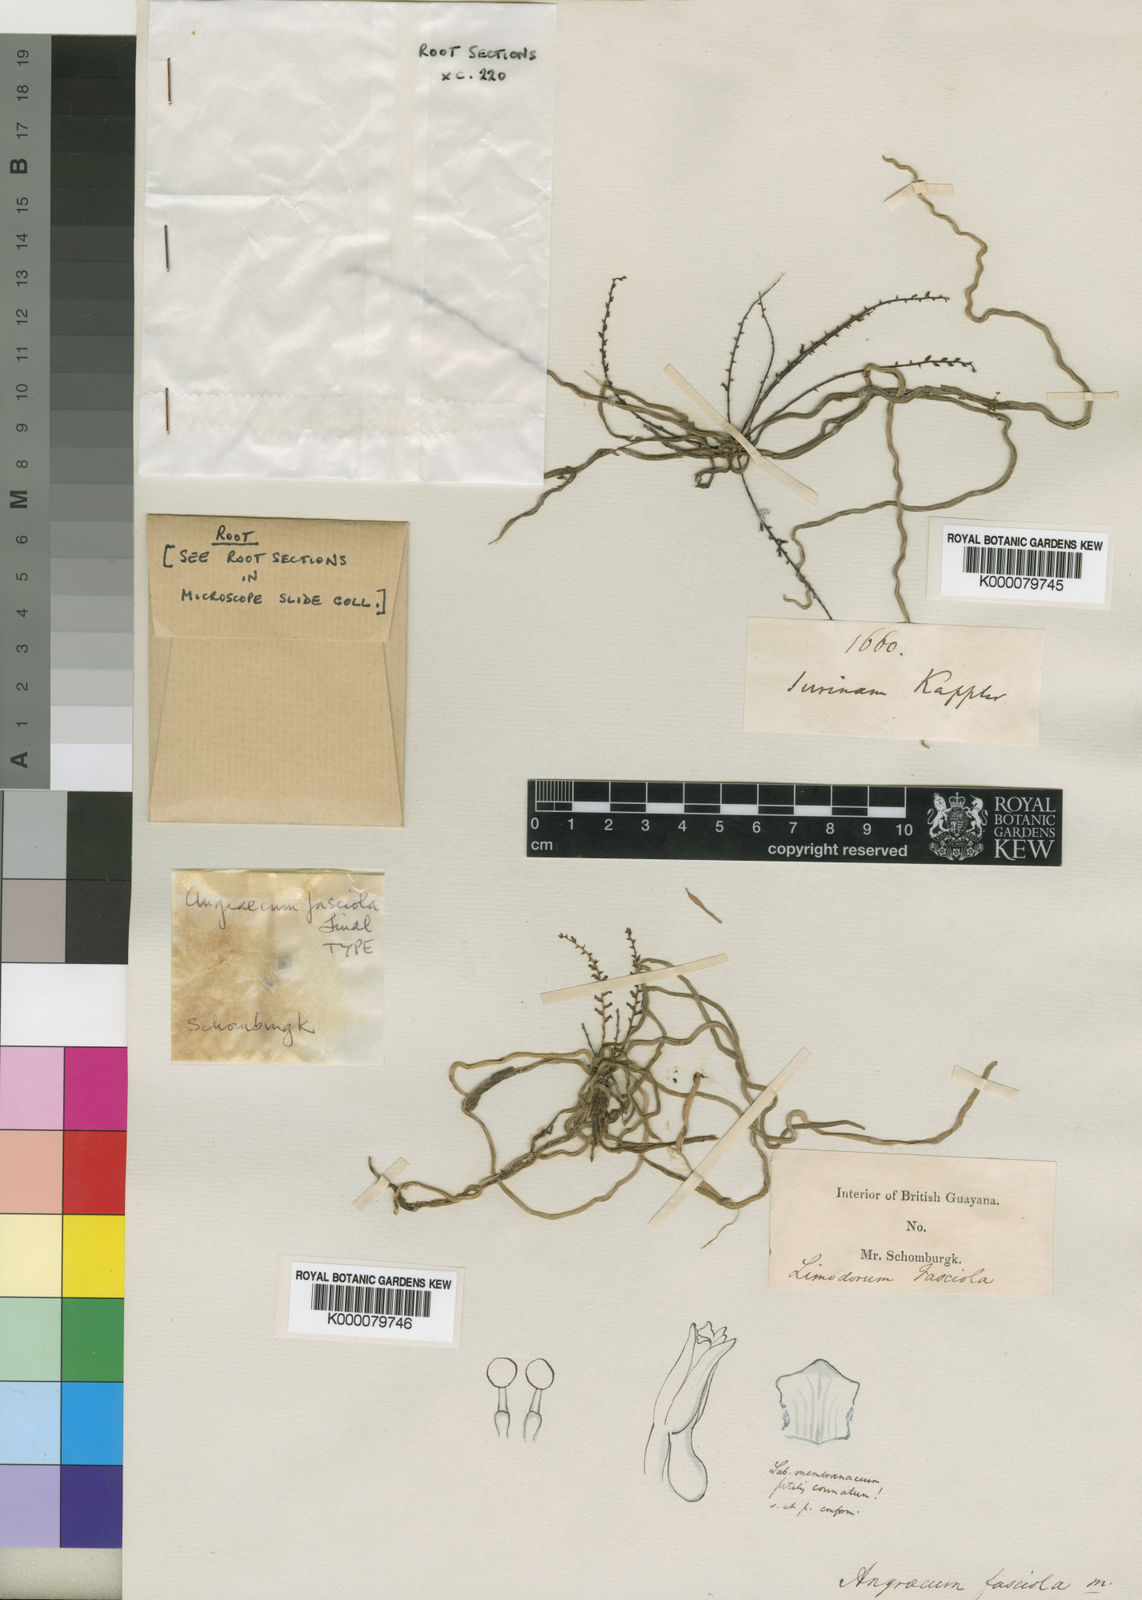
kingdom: Plantae
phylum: Tracheophyta
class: Liliopsida
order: Asparagales
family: Orchidaceae
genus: Campylocentrum
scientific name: Campylocentrum fasciola
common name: Arboreal bentspur orchid
